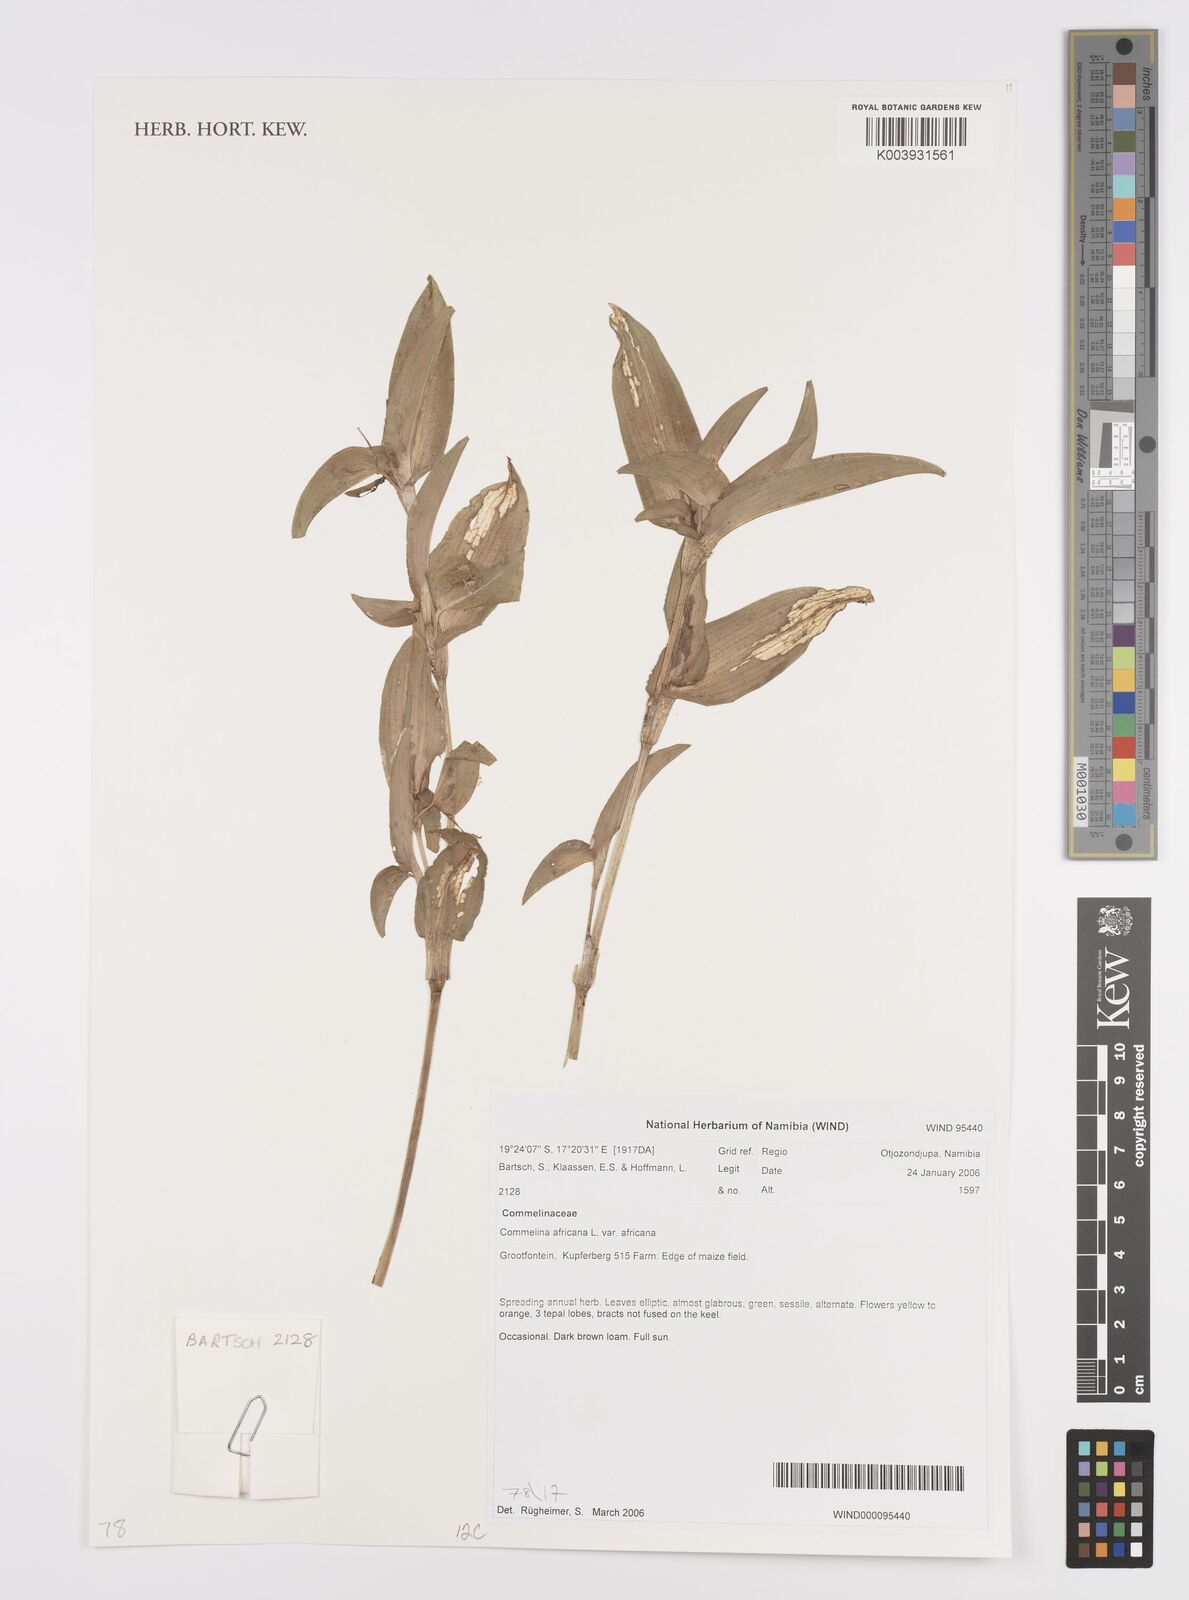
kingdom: Plantae
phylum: Tracheophyta
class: Liliopsida
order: Commelinales
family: Commelinaceae
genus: Commelina
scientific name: Commelina africana
